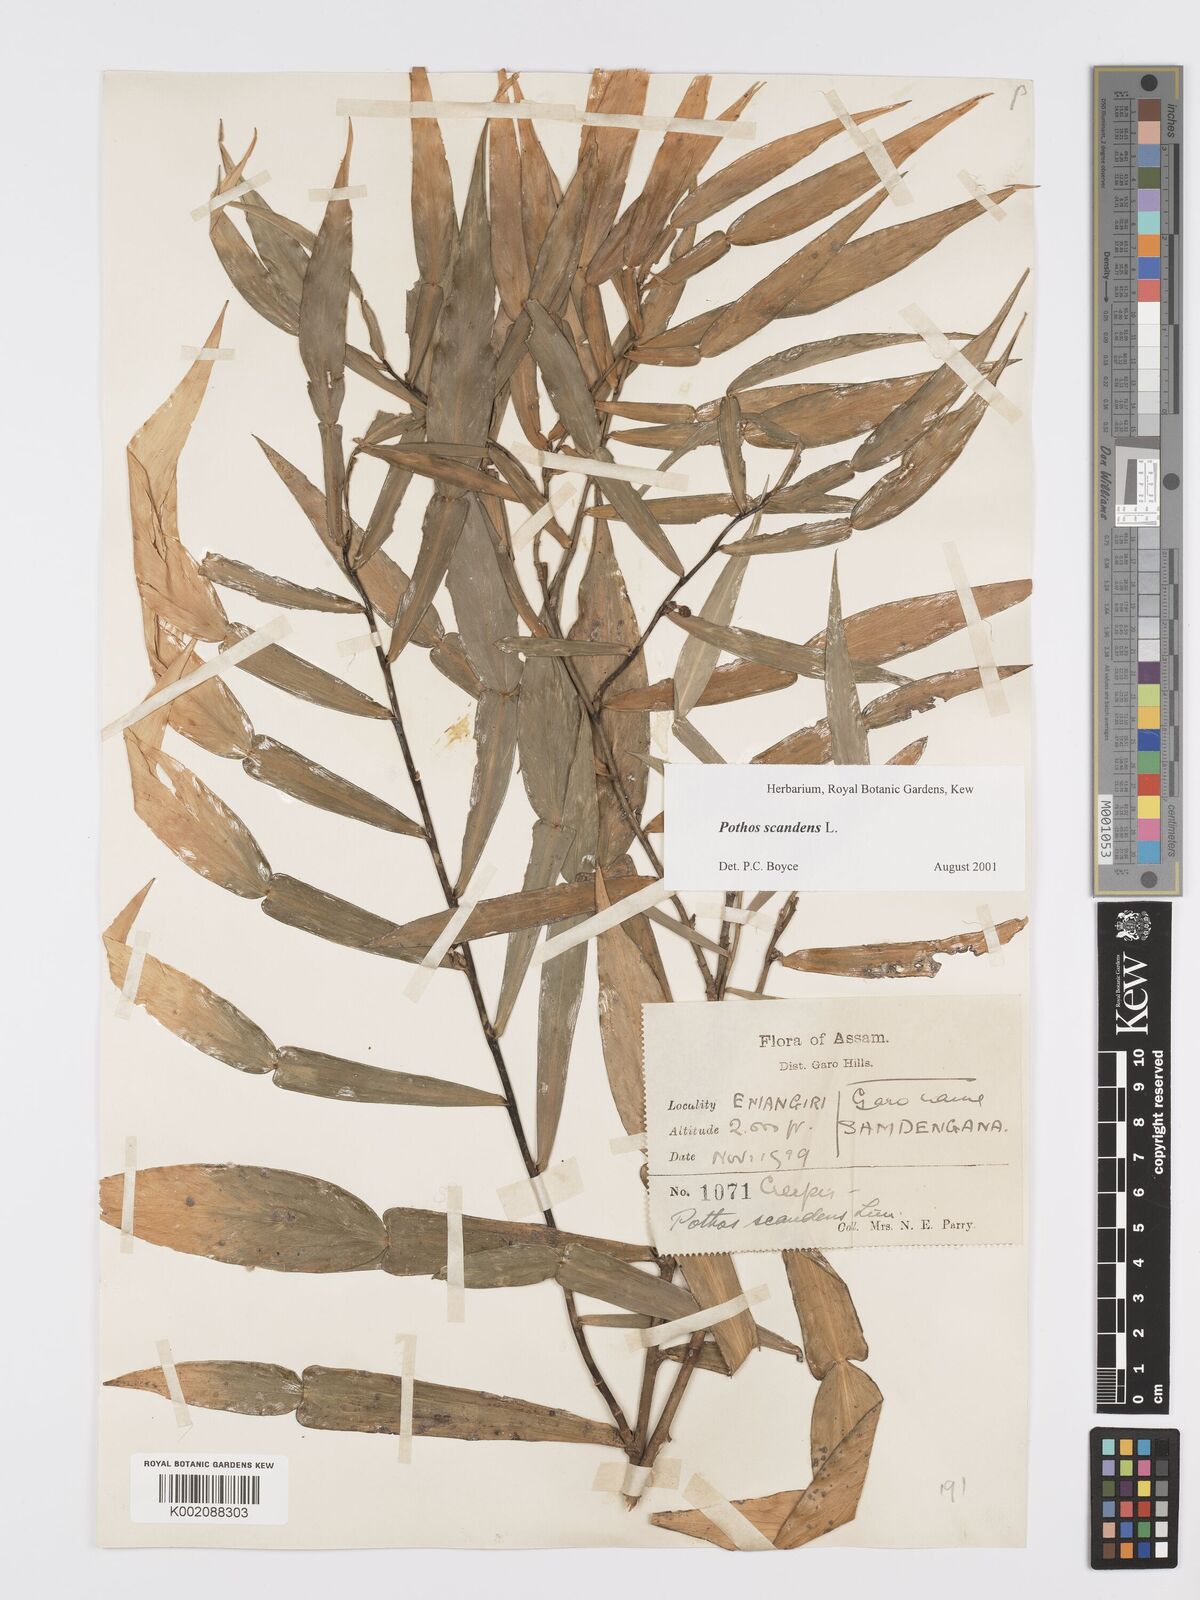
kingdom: Plantae
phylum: Tracheophyta
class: Liliopsida
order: Alismatales
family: Araceae
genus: Pothos
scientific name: Pothos scandens
